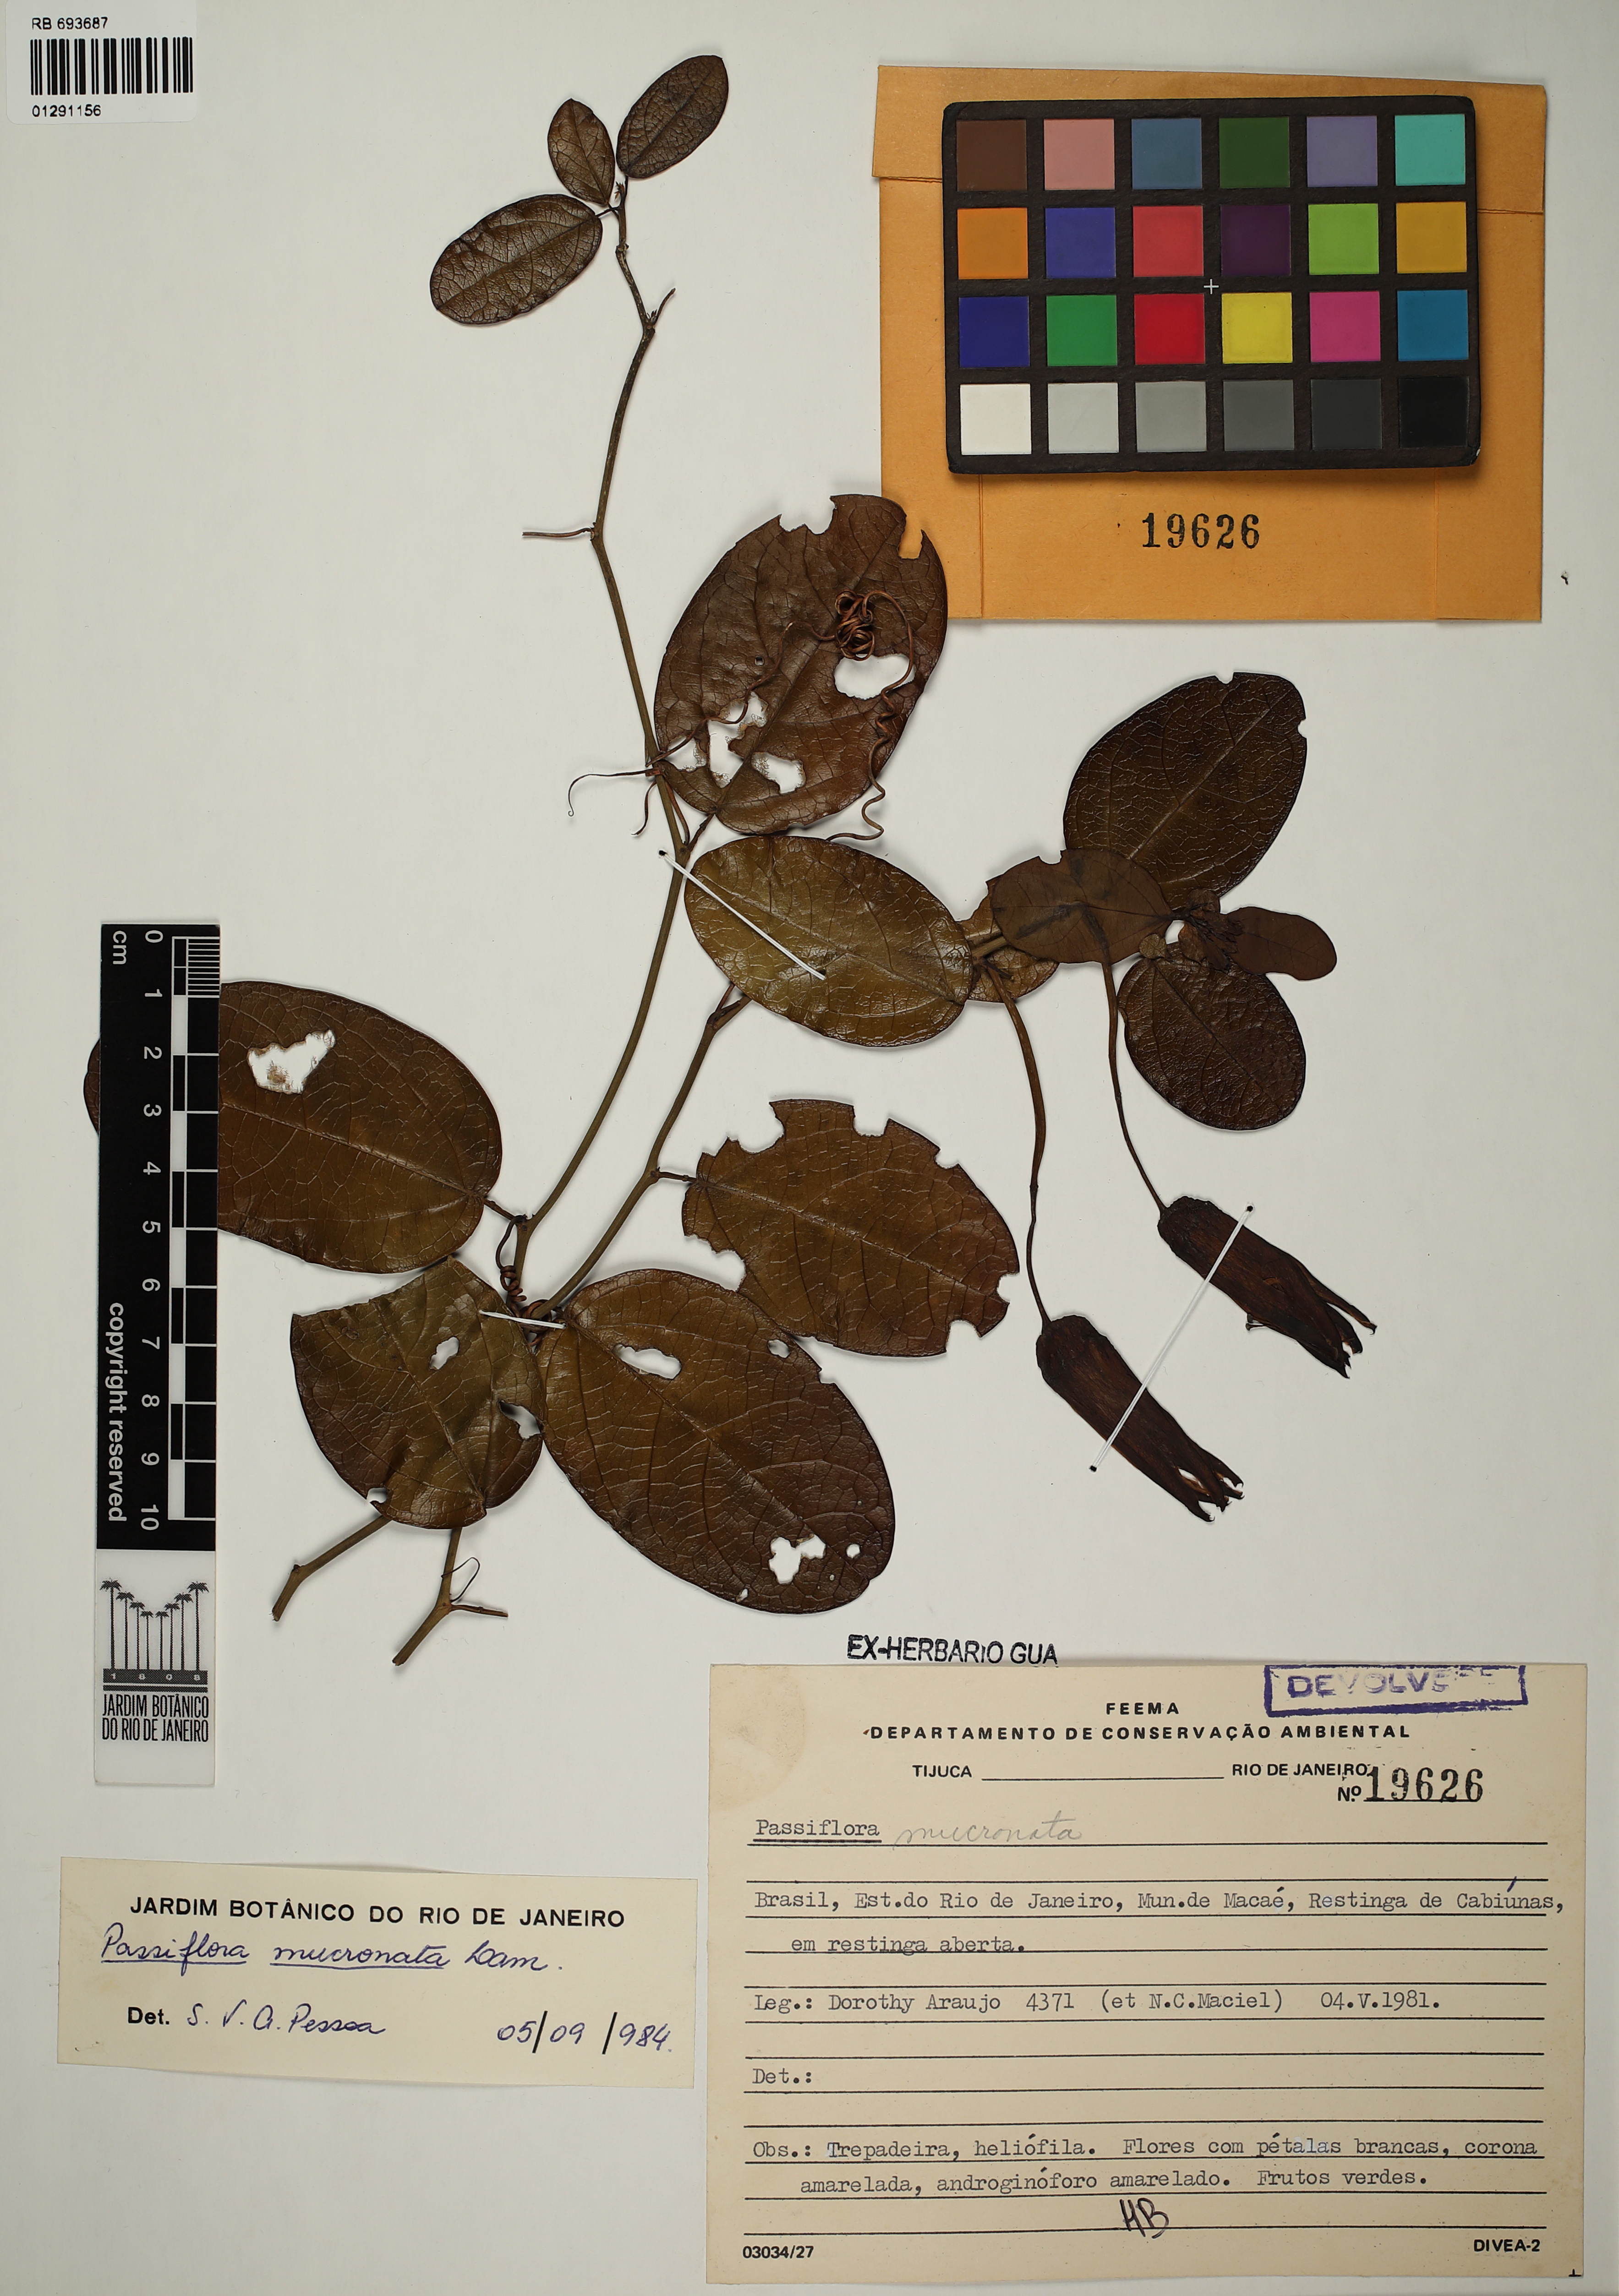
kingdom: Plantae
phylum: Tracheophyta
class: Magnoliopsida
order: Malpighiales
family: Passifloraceae
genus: Passiflora
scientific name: Passiflora mucronata
